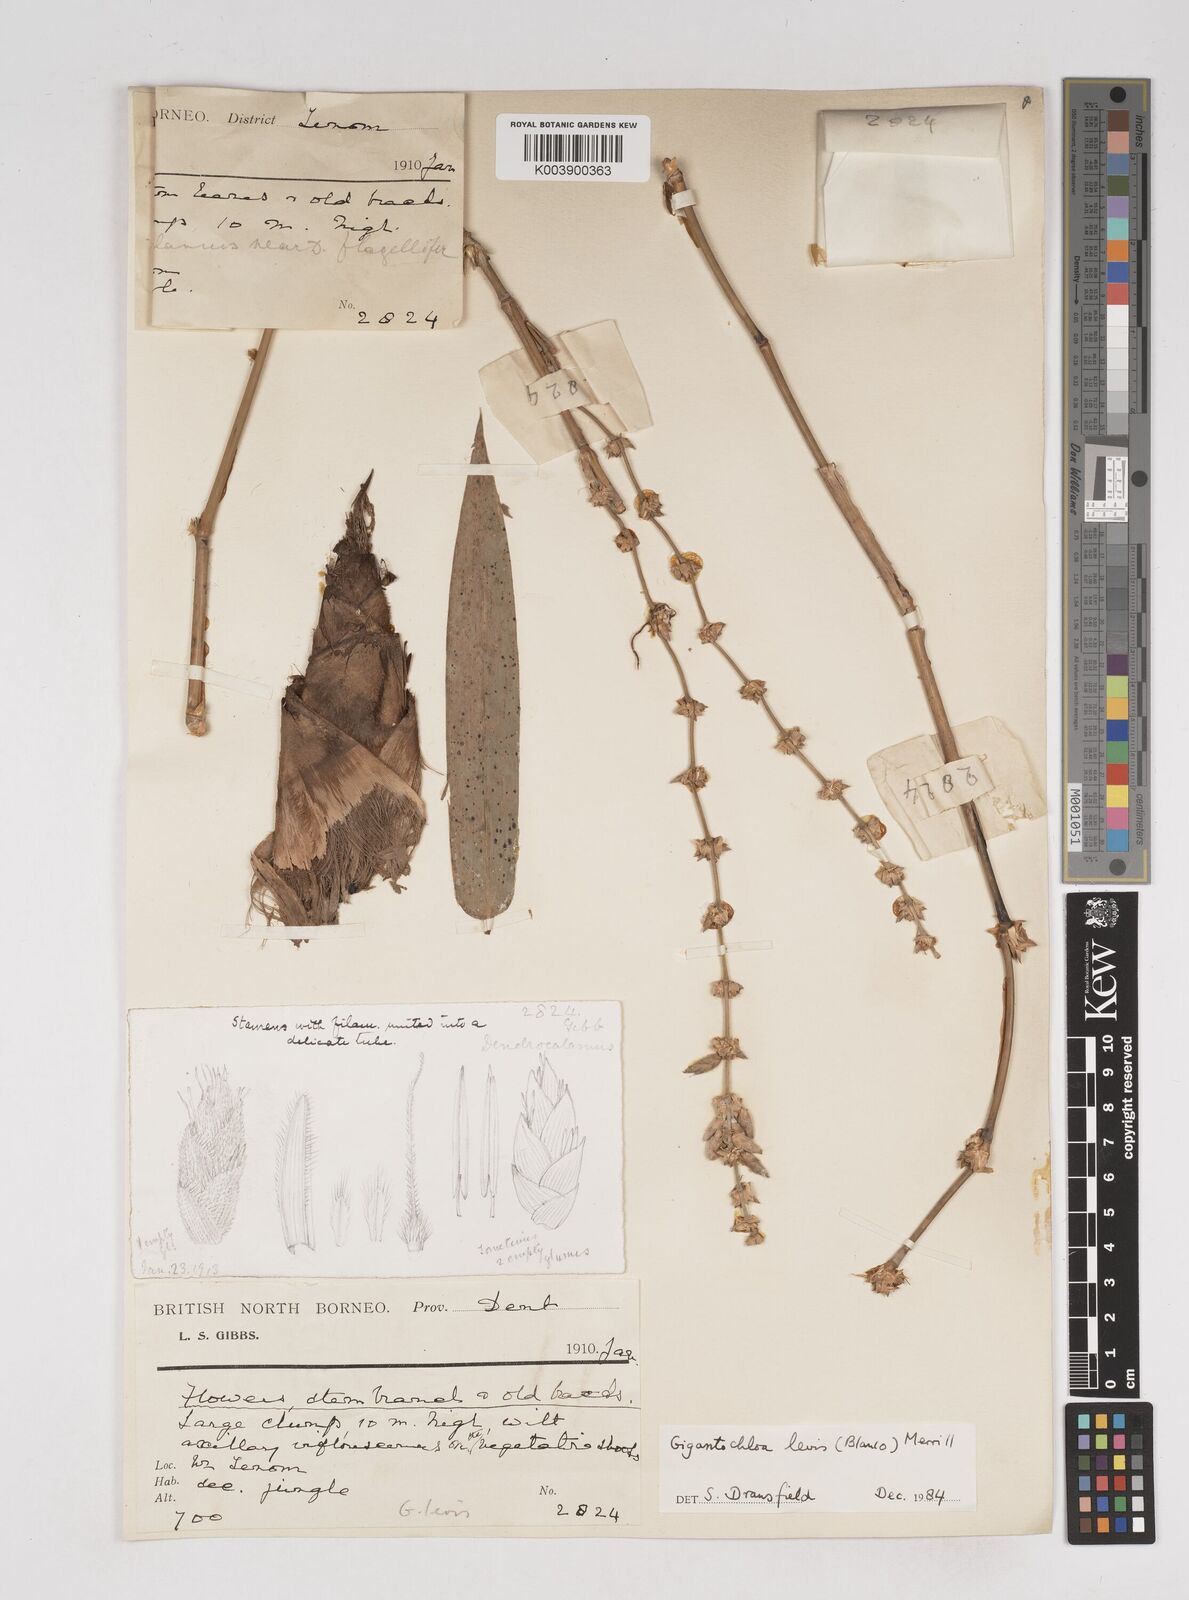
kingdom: Plantae
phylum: Tracheophyta
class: Liliopsida
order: Poales
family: Poaceae
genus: Gigantochloa
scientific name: Gigantochloa levis
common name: Smooth-shoot gigantochloa
